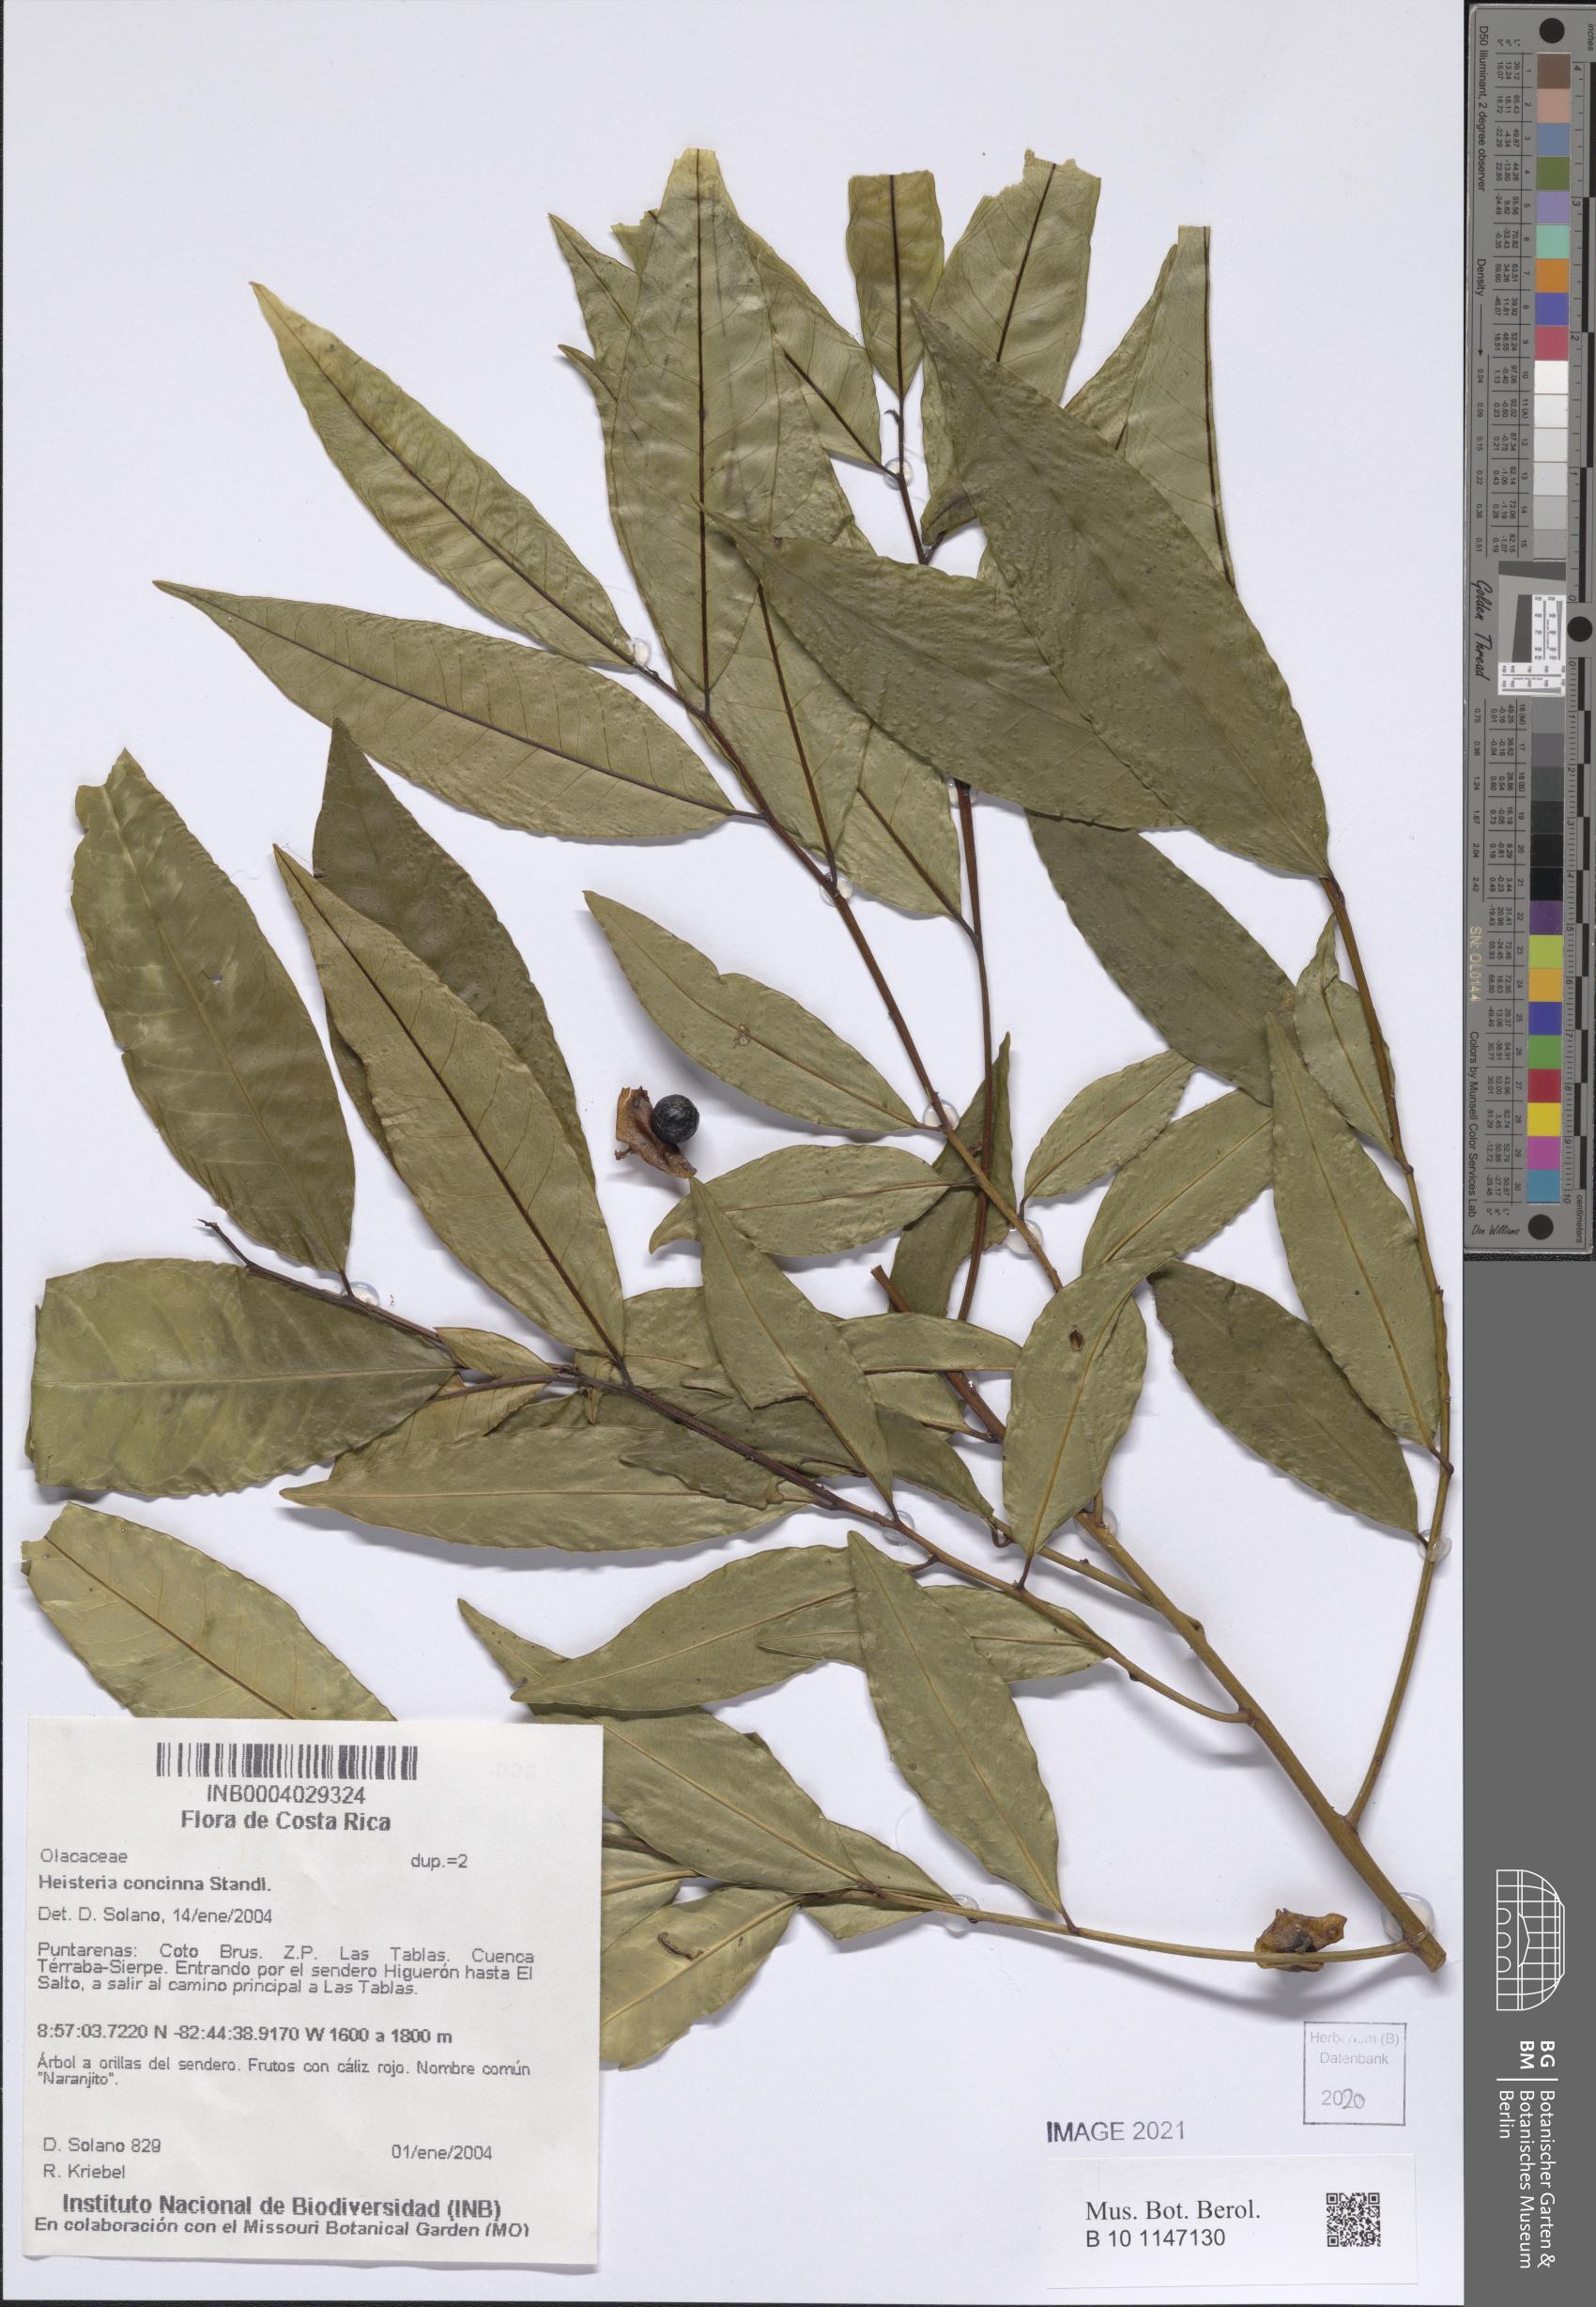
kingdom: Plantae
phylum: Tracheophyta
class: Magnoliopsida
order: Santalales
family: Erythropalaceae
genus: Heisteria
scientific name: Heisteria concinna
